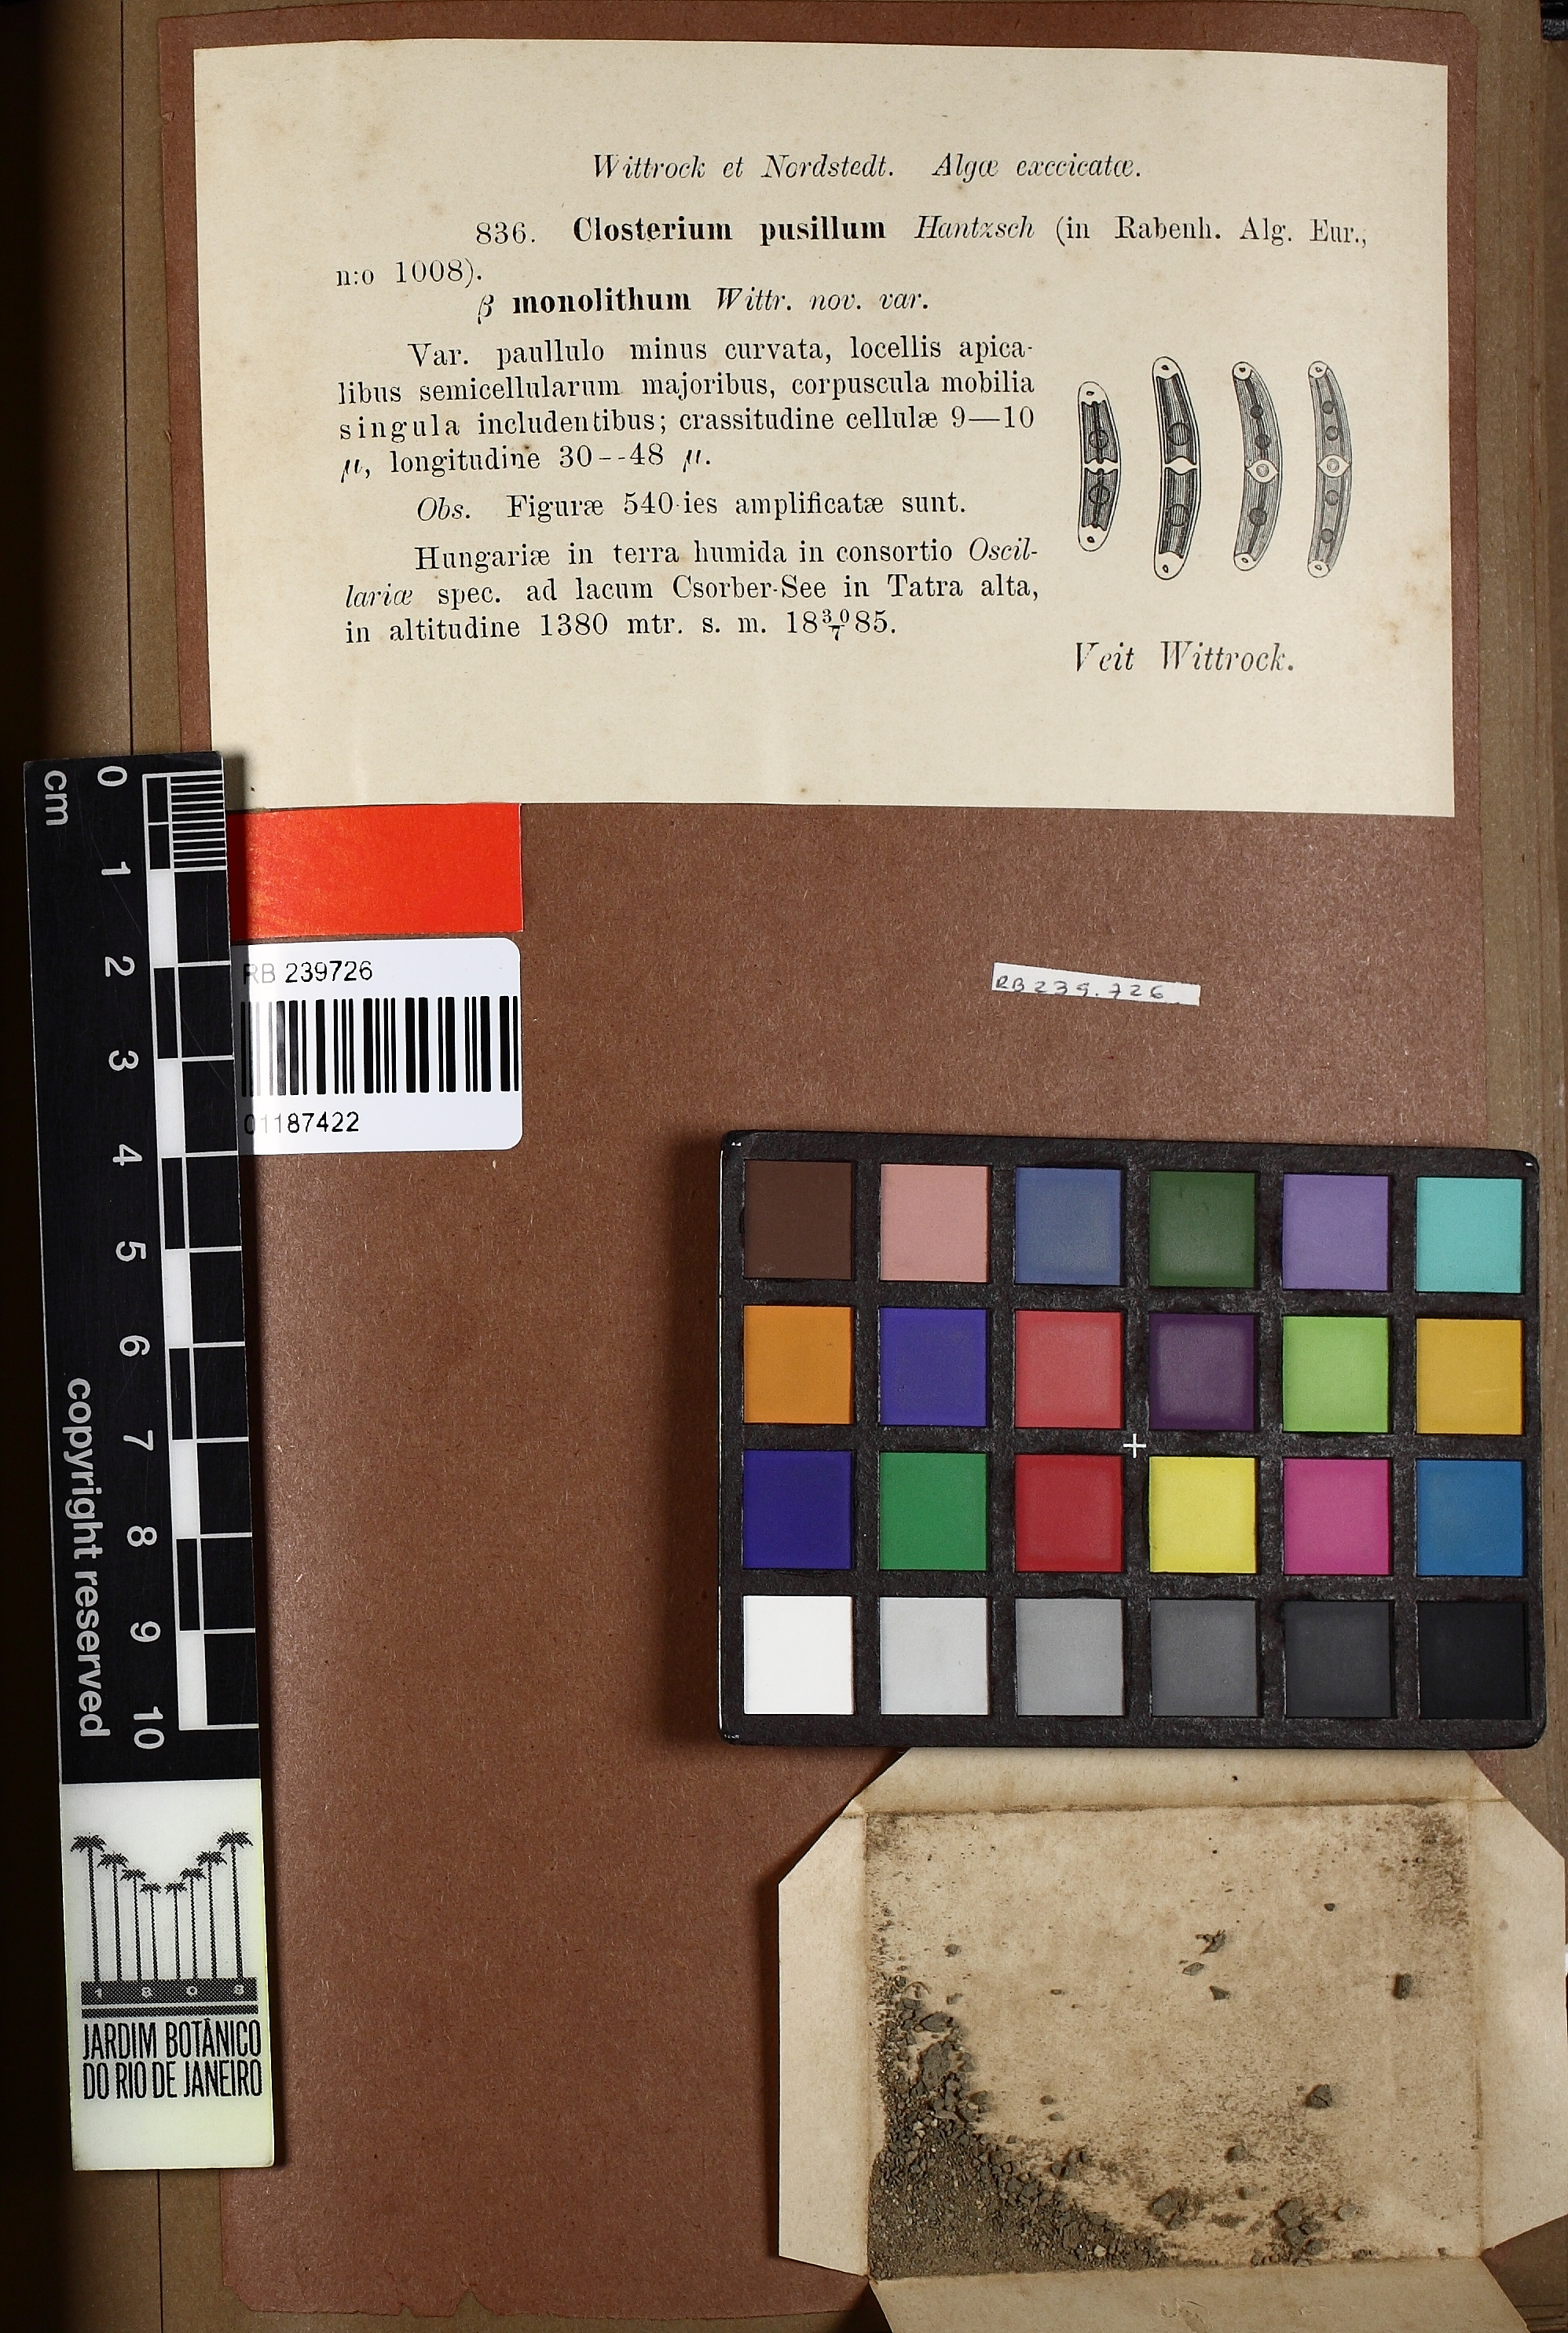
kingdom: Plantae
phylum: Charophyta
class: Zygnematophyceae
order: Zygnematales
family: Closteriaceae
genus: Closterium
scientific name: Closterium pusillum
